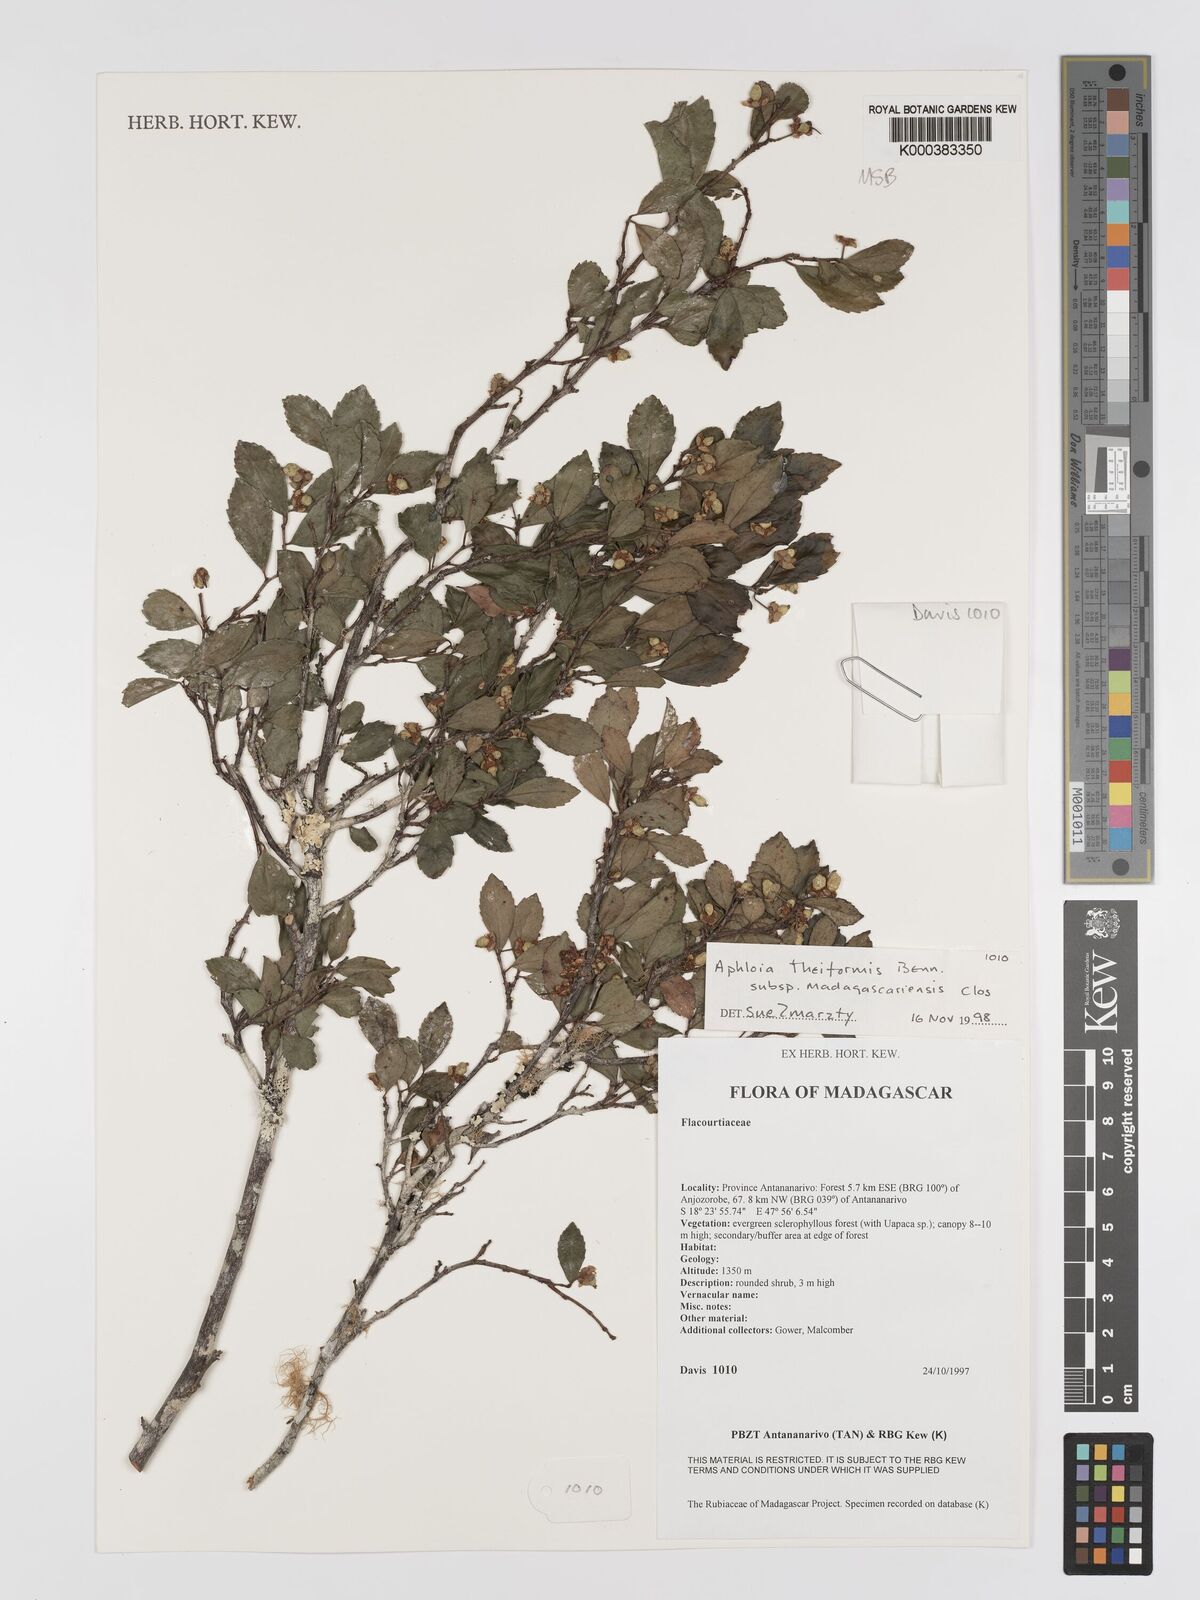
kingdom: Plantae
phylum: Tracheophyta
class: Magnoliopsida
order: Crossosomatales
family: Aphloiaceae
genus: Aphloia
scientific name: Aphloia theiformis
